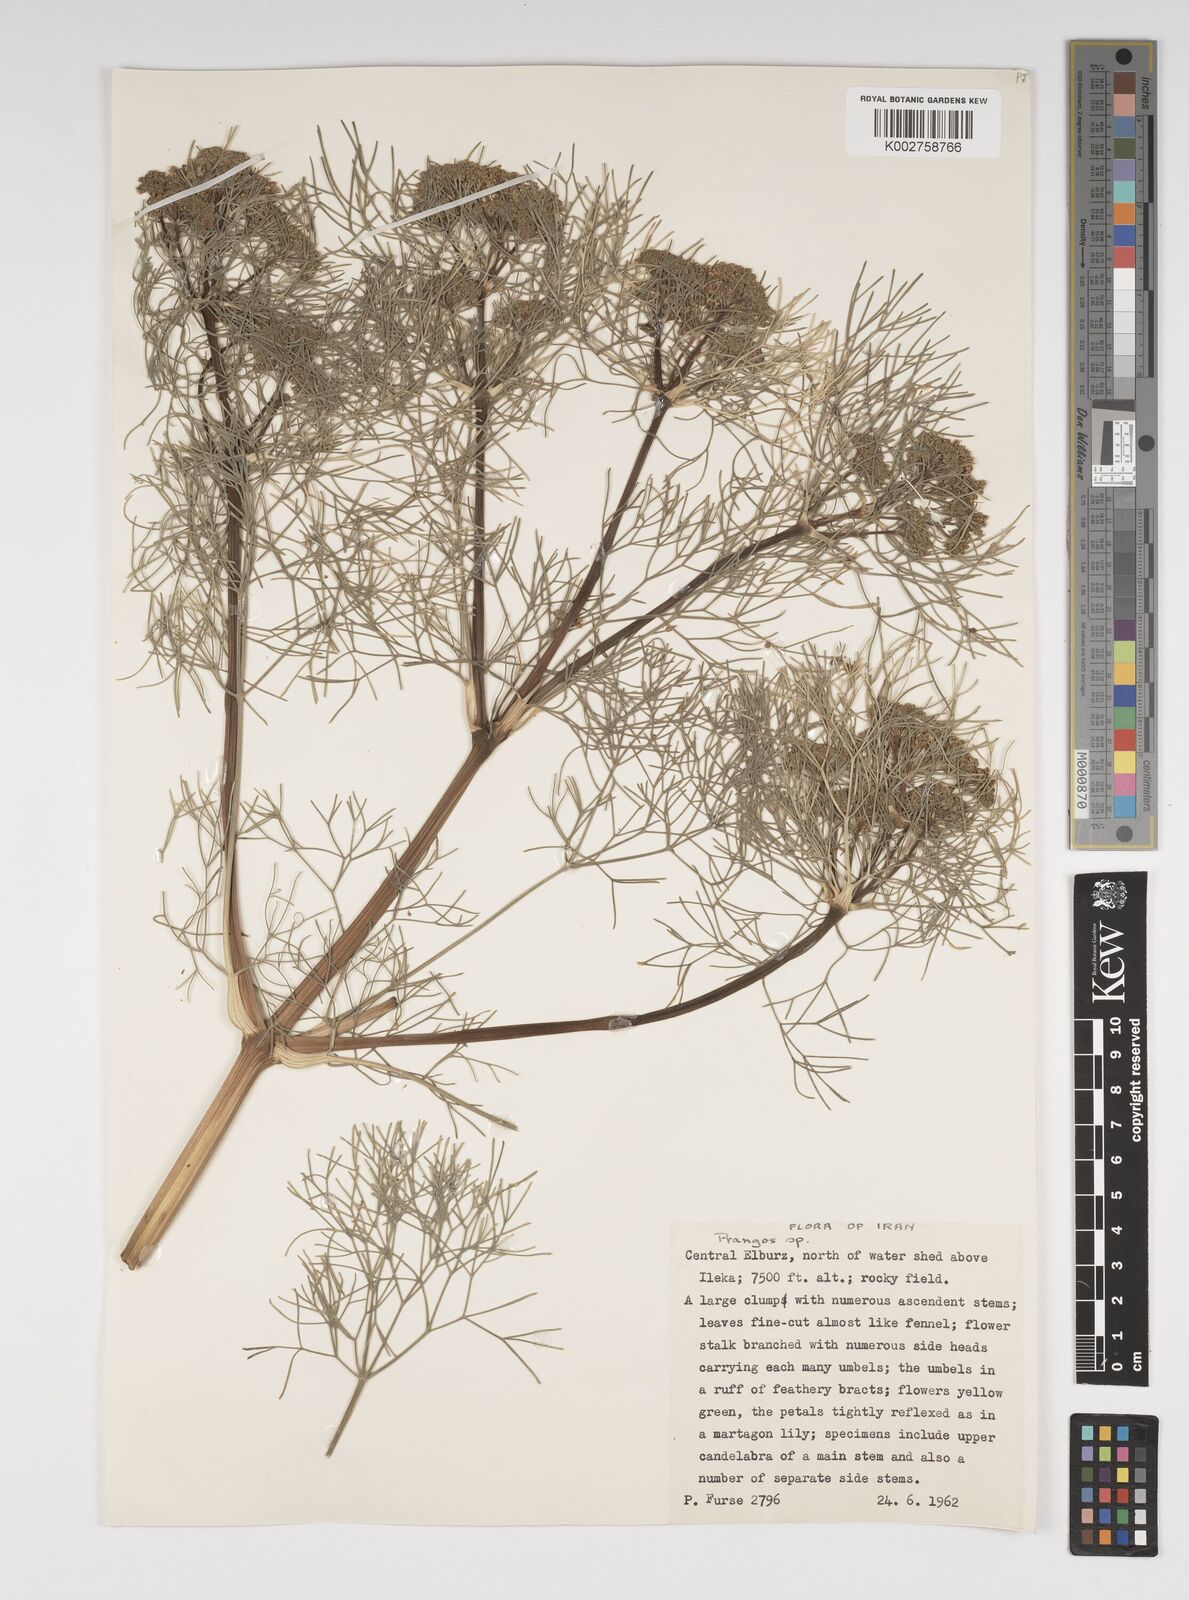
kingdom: Plantae
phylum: Tracheophyta
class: Magnoliopsida
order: Apiales
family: Apiaceae
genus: Cachrys
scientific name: Cachrys
